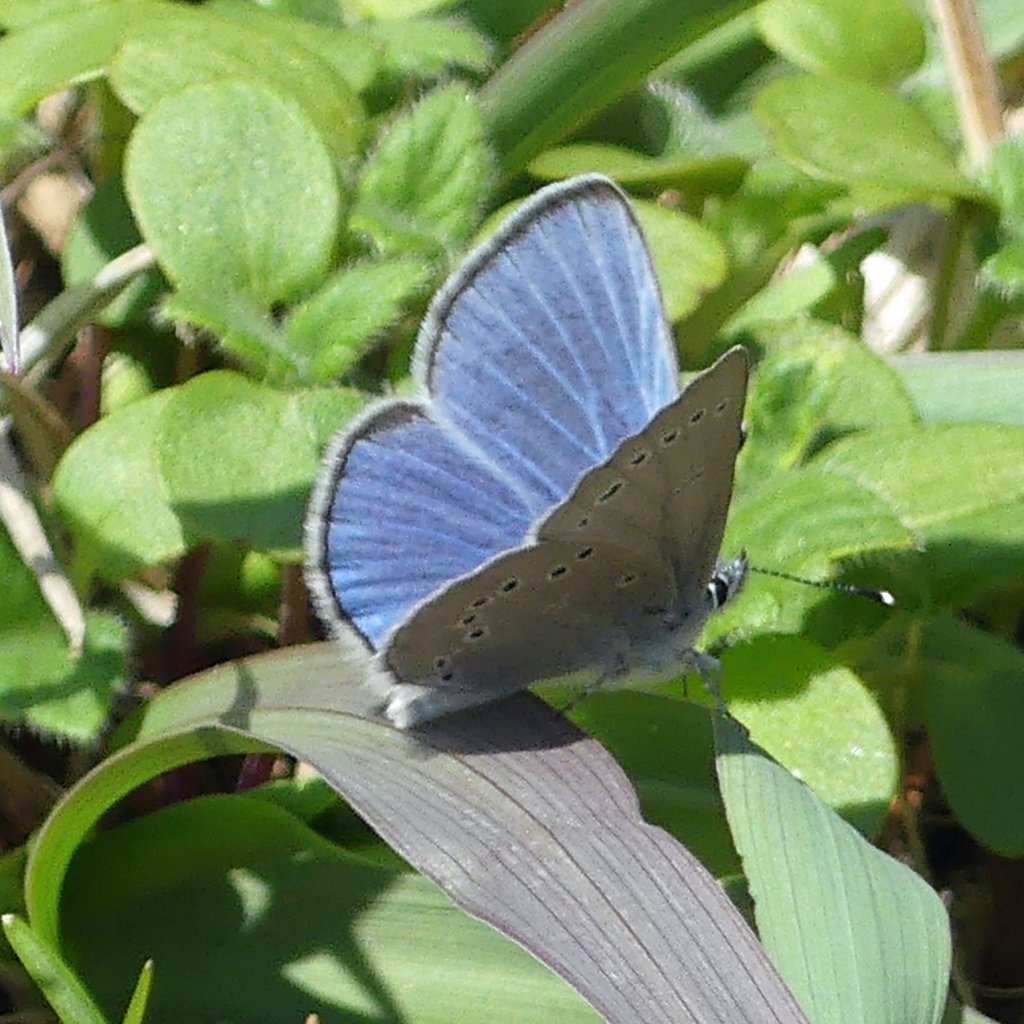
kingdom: Animalia
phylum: Arthropoda
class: Insecta
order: Lepidoptera
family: Lycaenidae
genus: Glaucopsyche
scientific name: Glaucopsyche lygdamus
